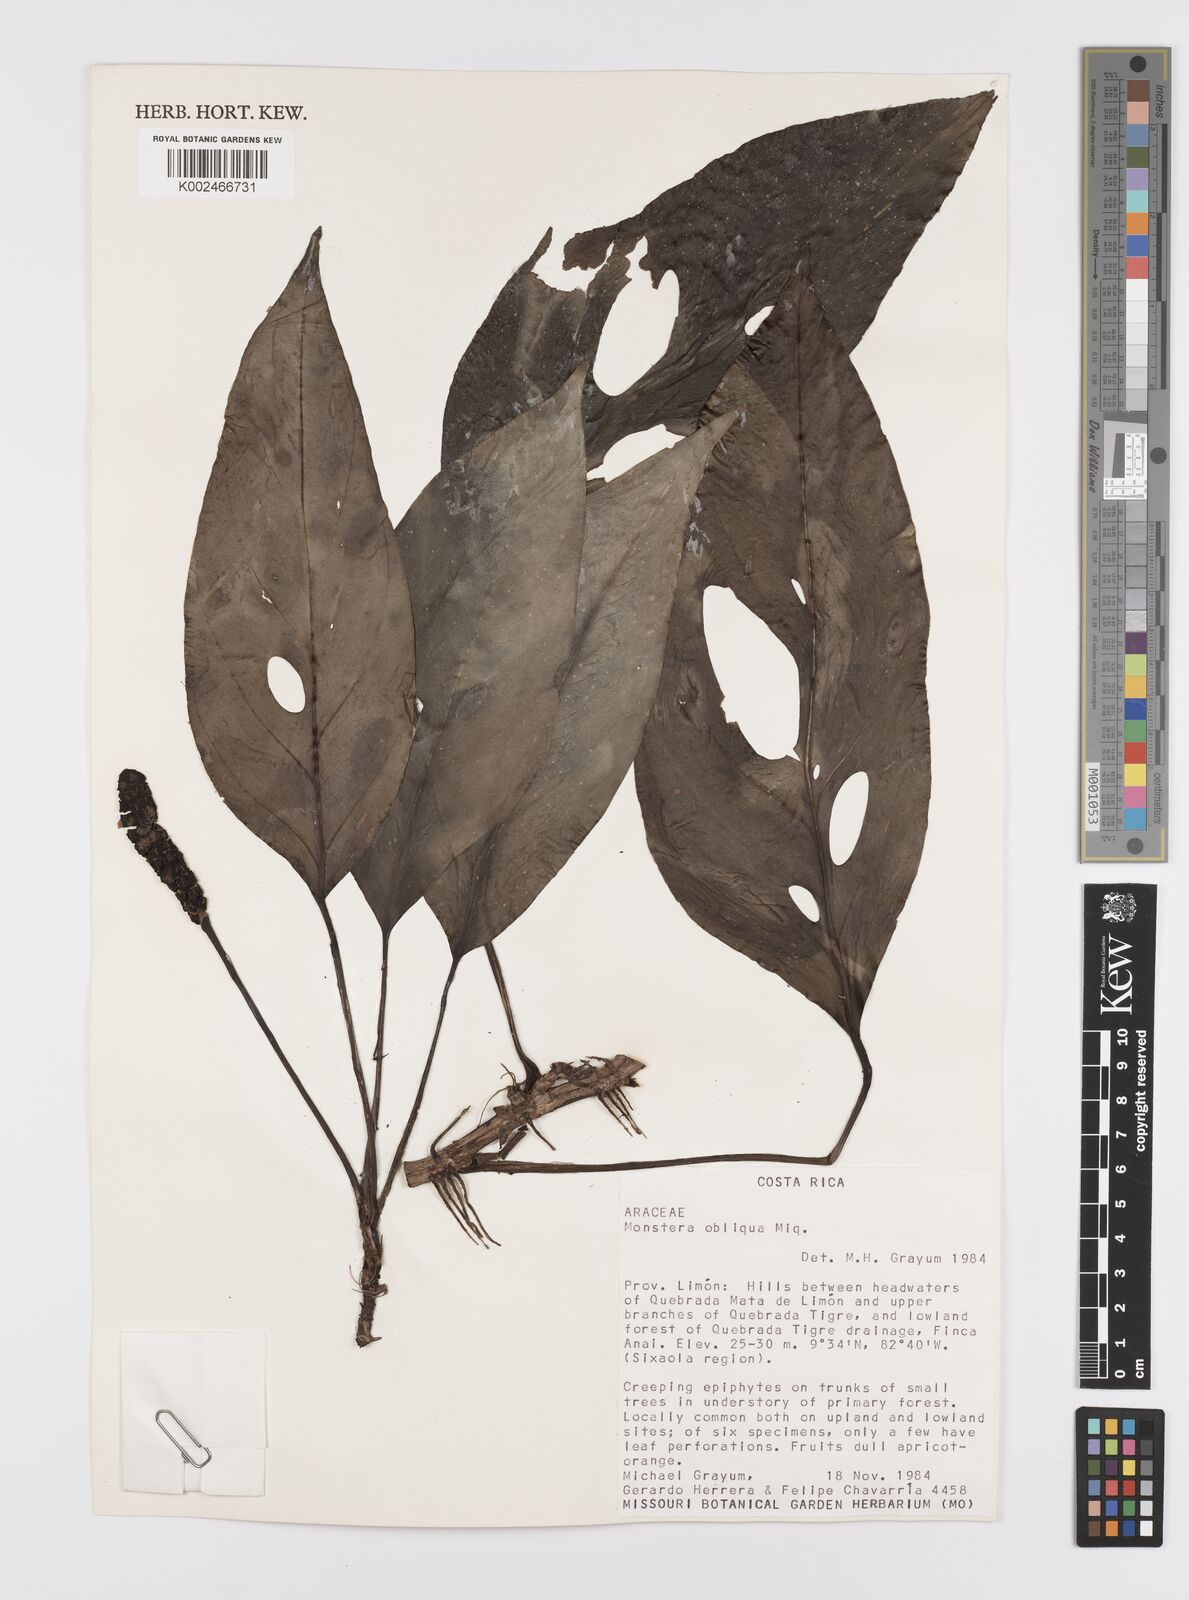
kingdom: Plantae
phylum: Tracheophyta
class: Liliopsida
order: Alismatales
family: Araceae
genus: Monstera
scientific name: Monstera obliqua
